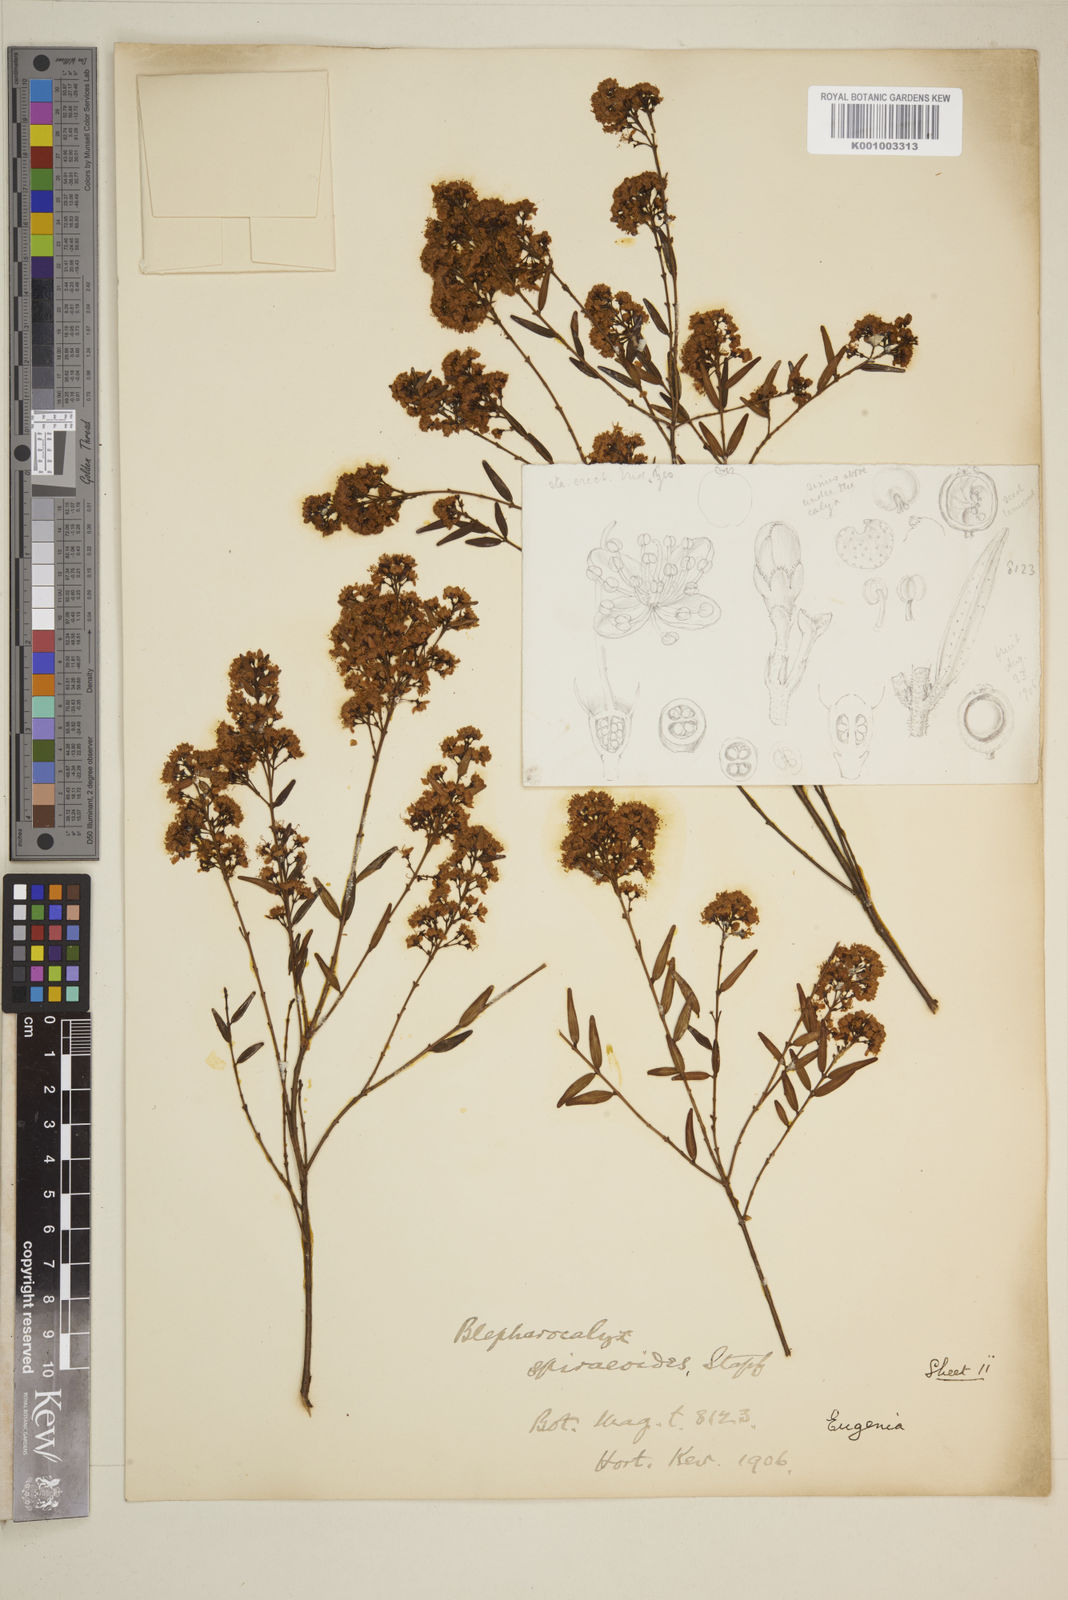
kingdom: Plantae
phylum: Tracheophyta
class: Magnoliopsida
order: Myrtales
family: Myrtaceae
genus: Eugenia
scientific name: Eugenia
